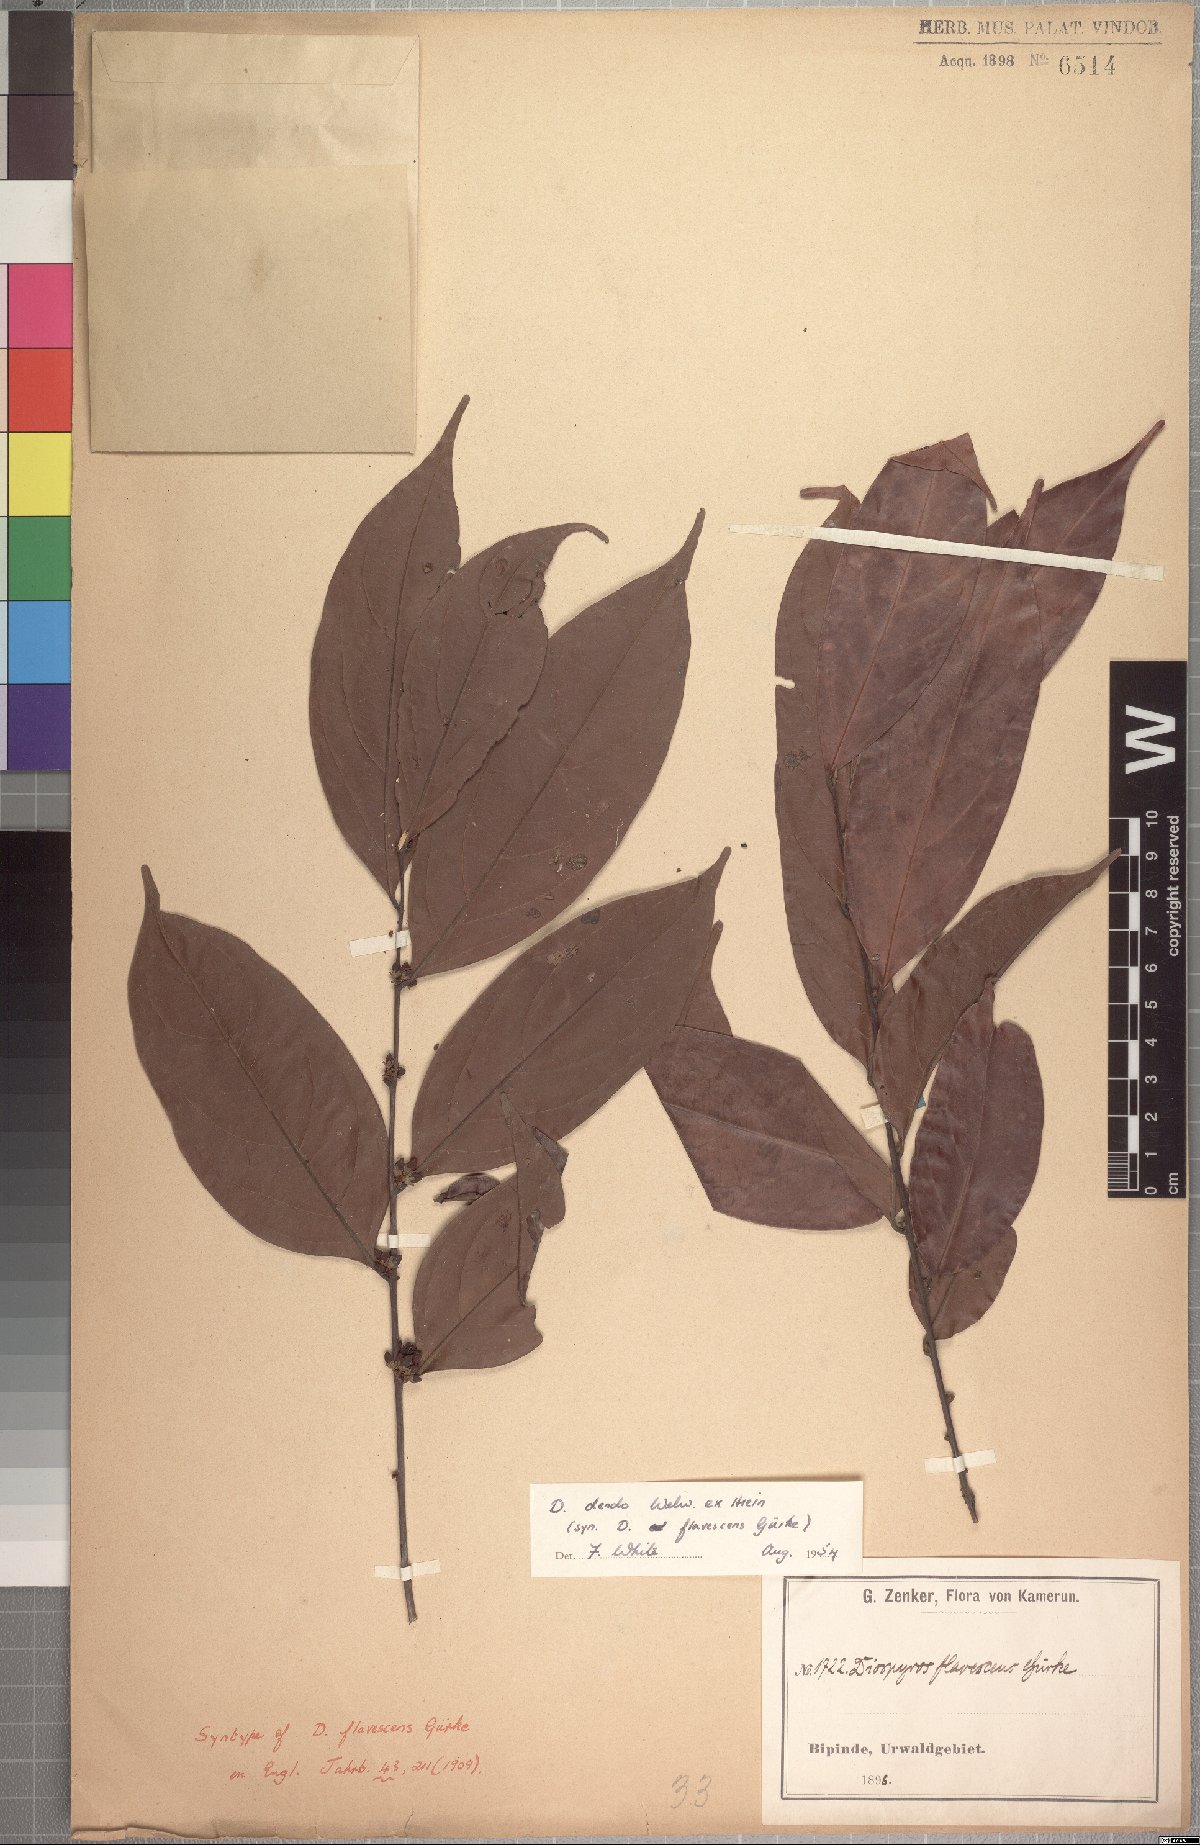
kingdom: Plantae
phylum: Tracheophyta
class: Magnoliopsida
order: Ericales
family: Ebenaceae
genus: Diospyros
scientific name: Diospyros dendo
